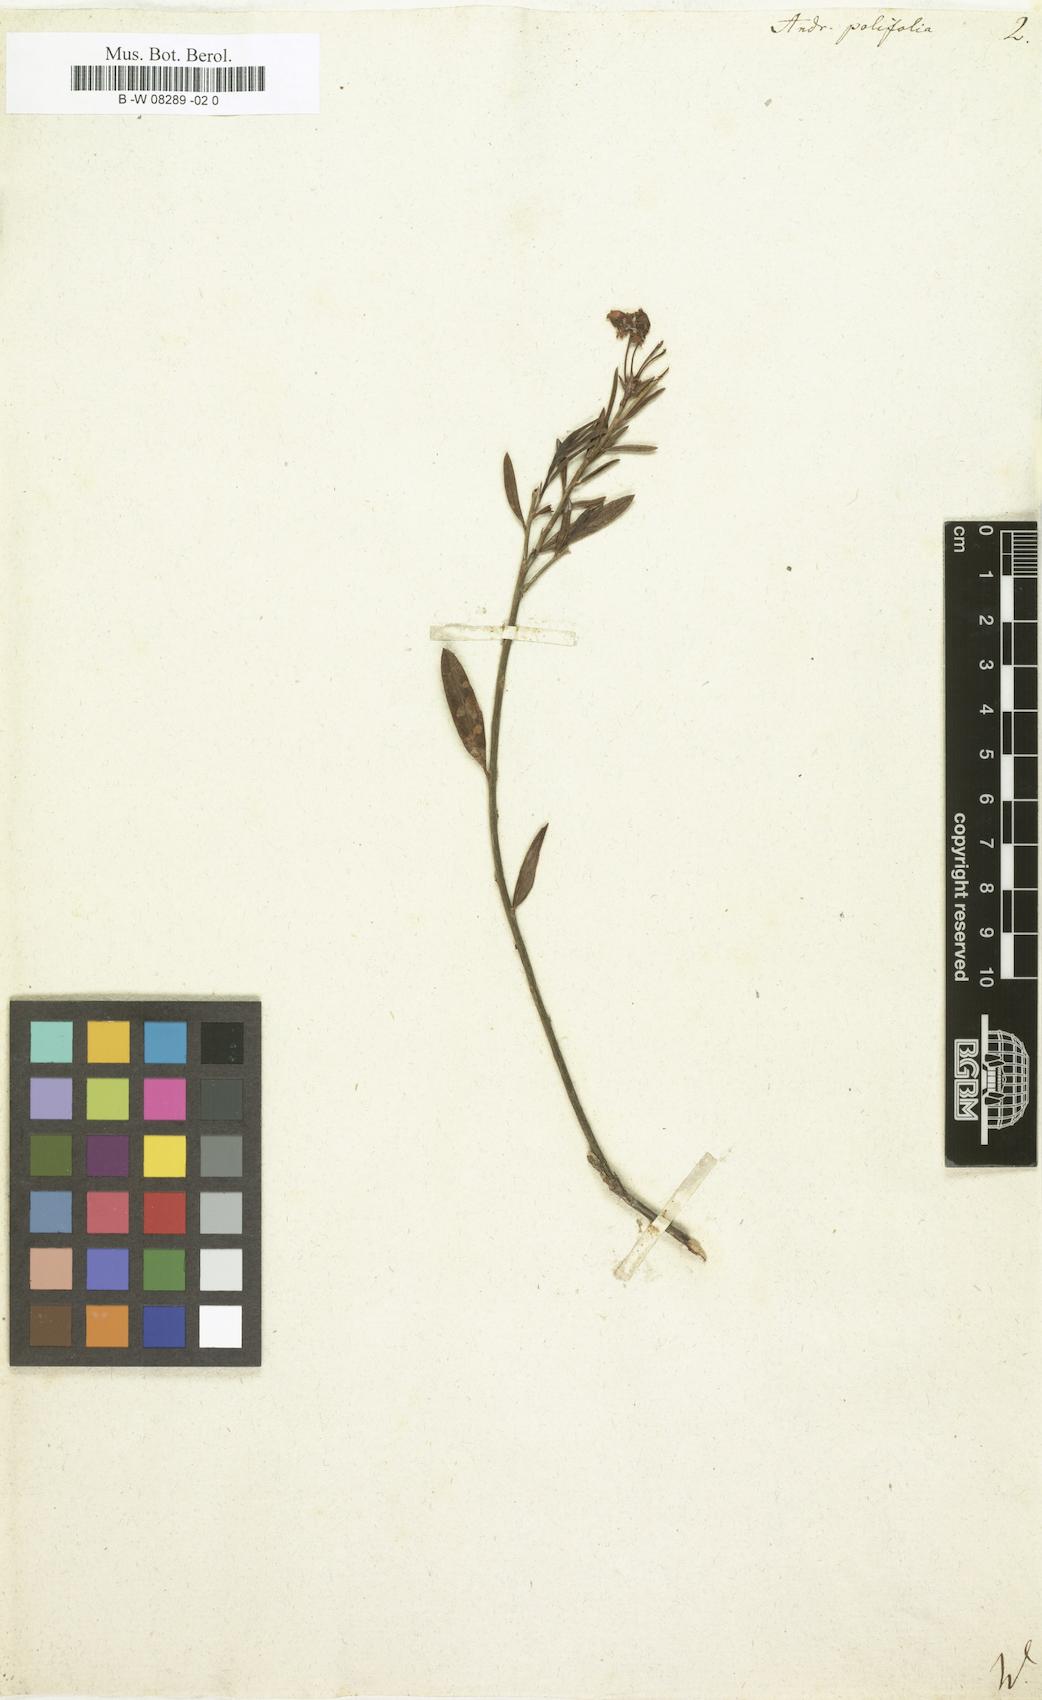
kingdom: Plantae
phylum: Tracheophyta
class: Magnoliopsida
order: Ericales
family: Ericaceae
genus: Andromeda
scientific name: Andromeda polifolia
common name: Bog-rosemary
